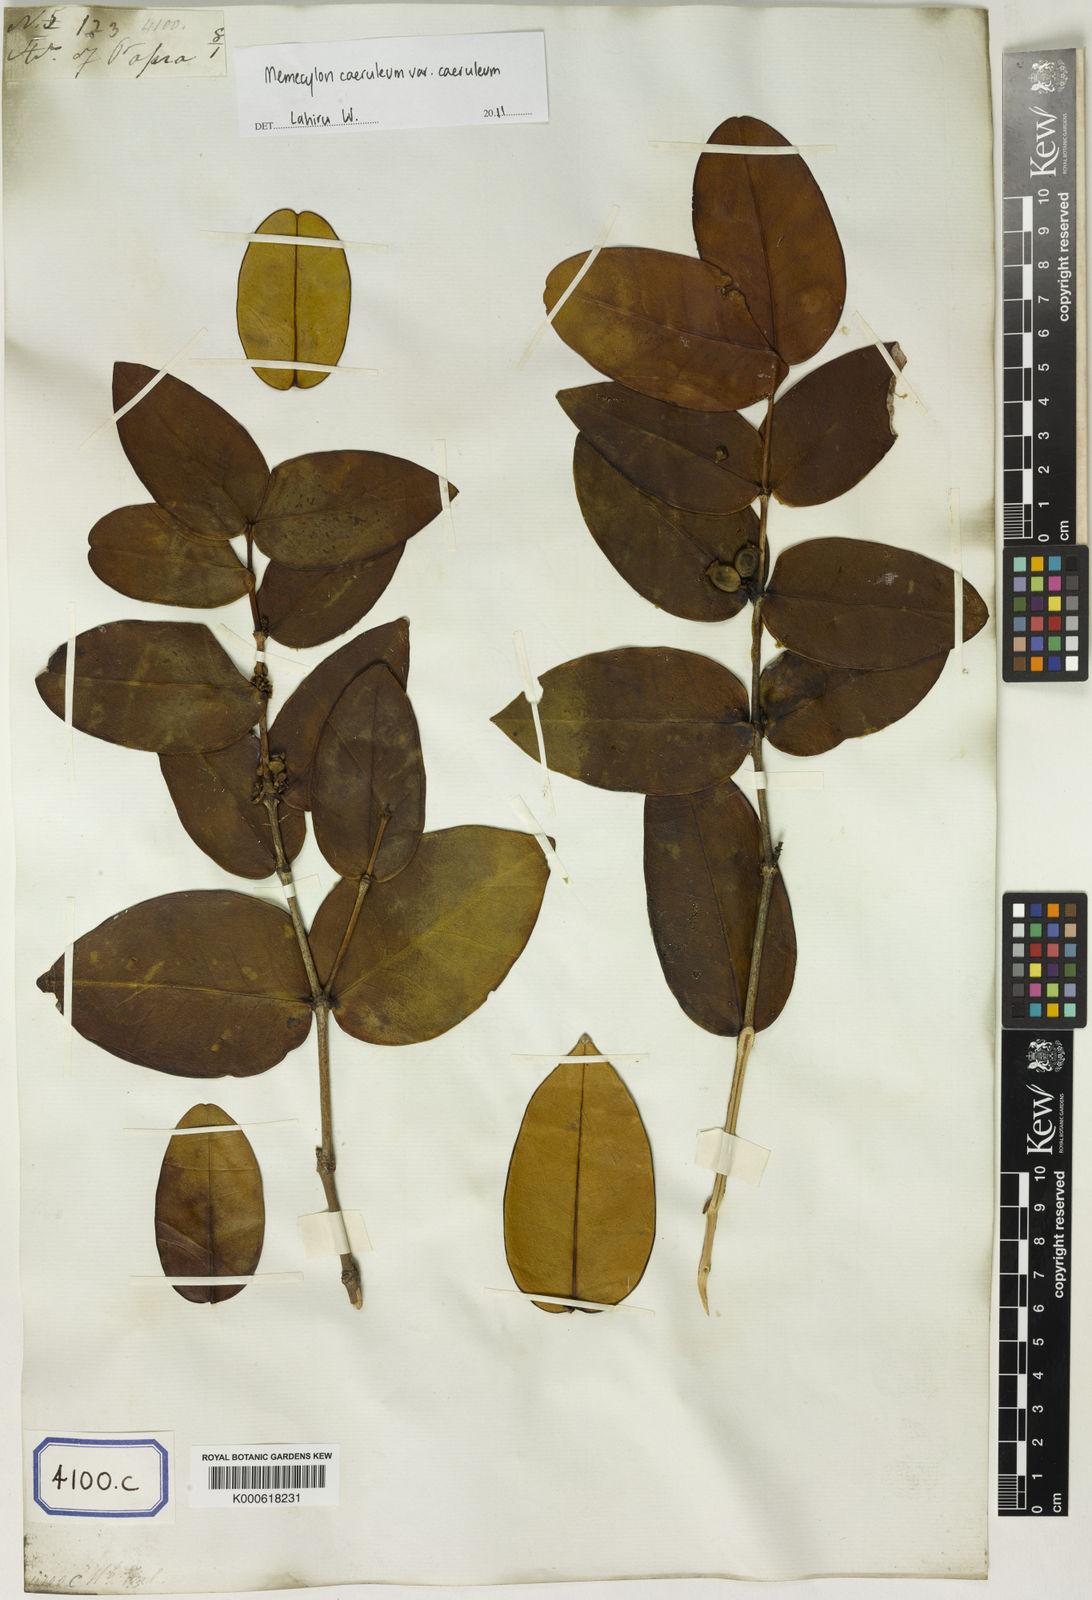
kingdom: Plantae
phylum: Tracheophyta
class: Magnoliopsida
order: Myrtales
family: Melastomataceae
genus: Memecylon
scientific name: Memecylon caeruleum
